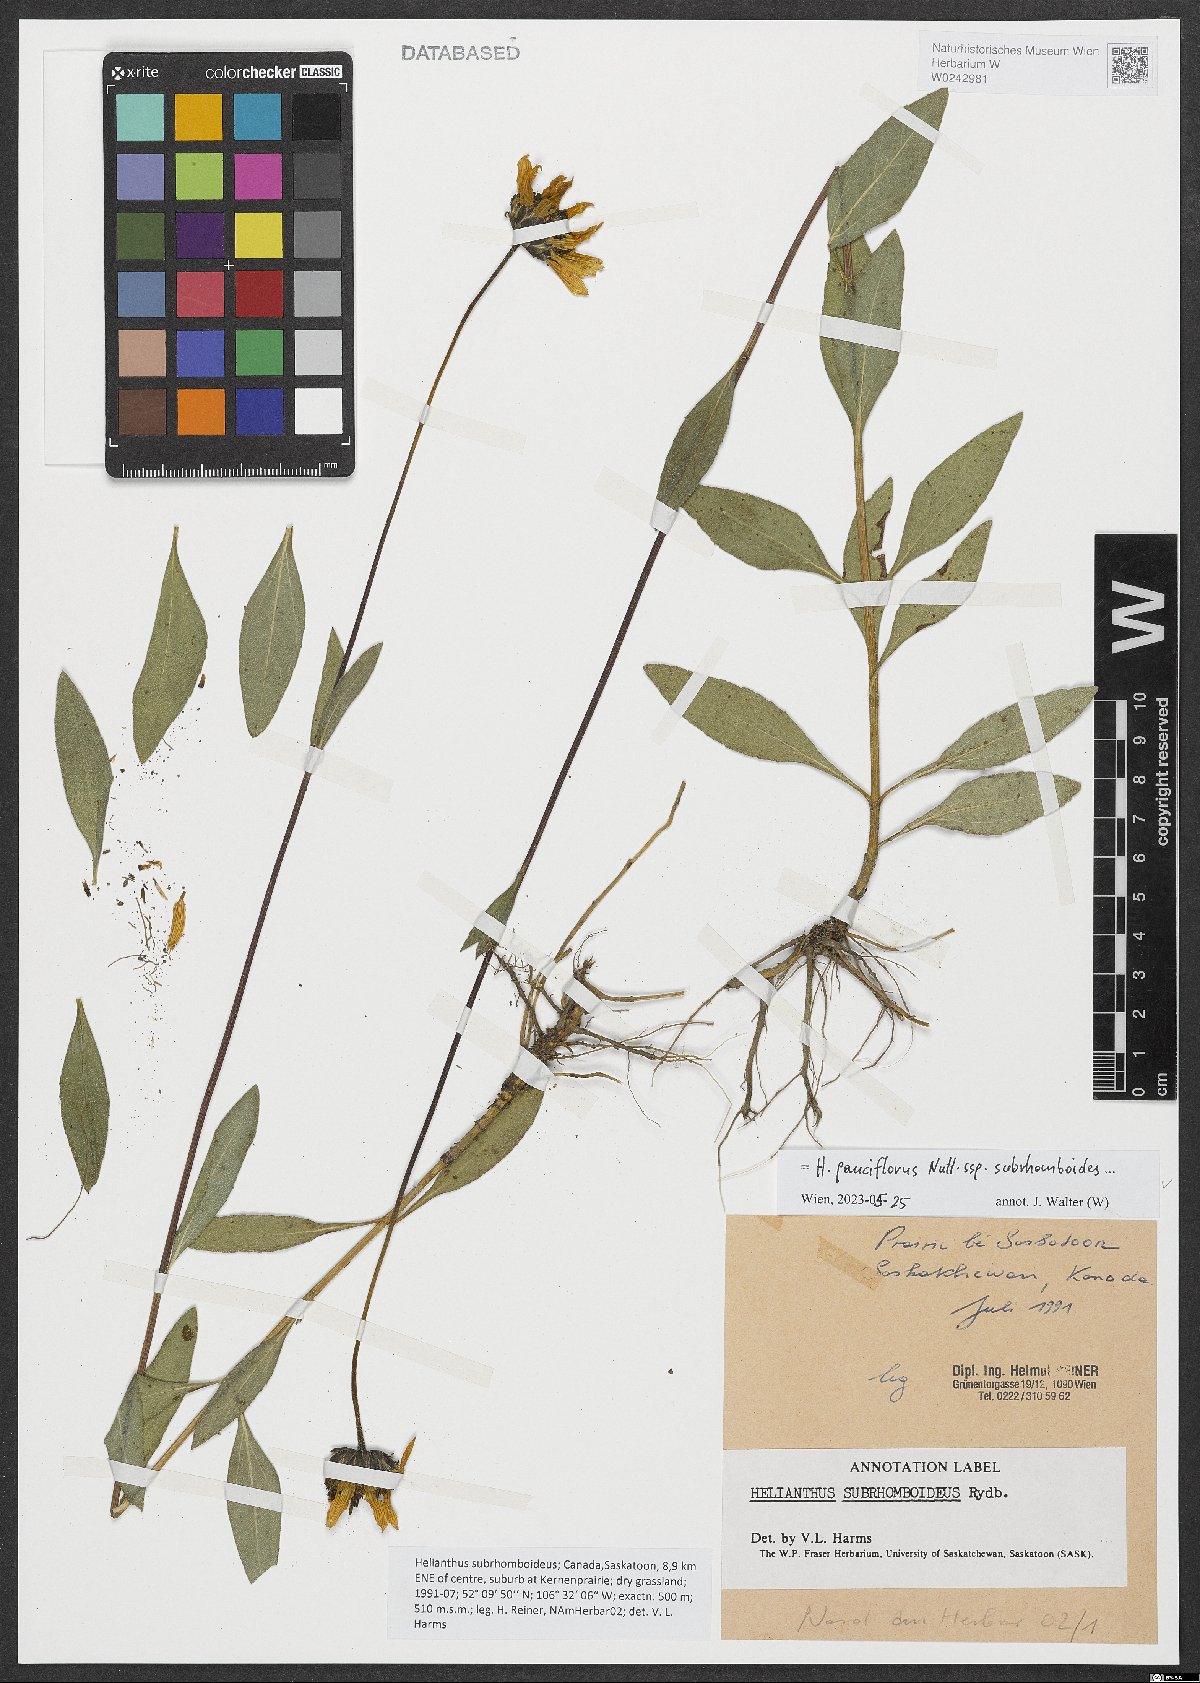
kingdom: Plantae
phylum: Tracheophyta
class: Magnoliopsida
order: Asterales
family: Asteraceae
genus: Helianthus
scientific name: Helianthus pauciflorus
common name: Stiff sunflower
